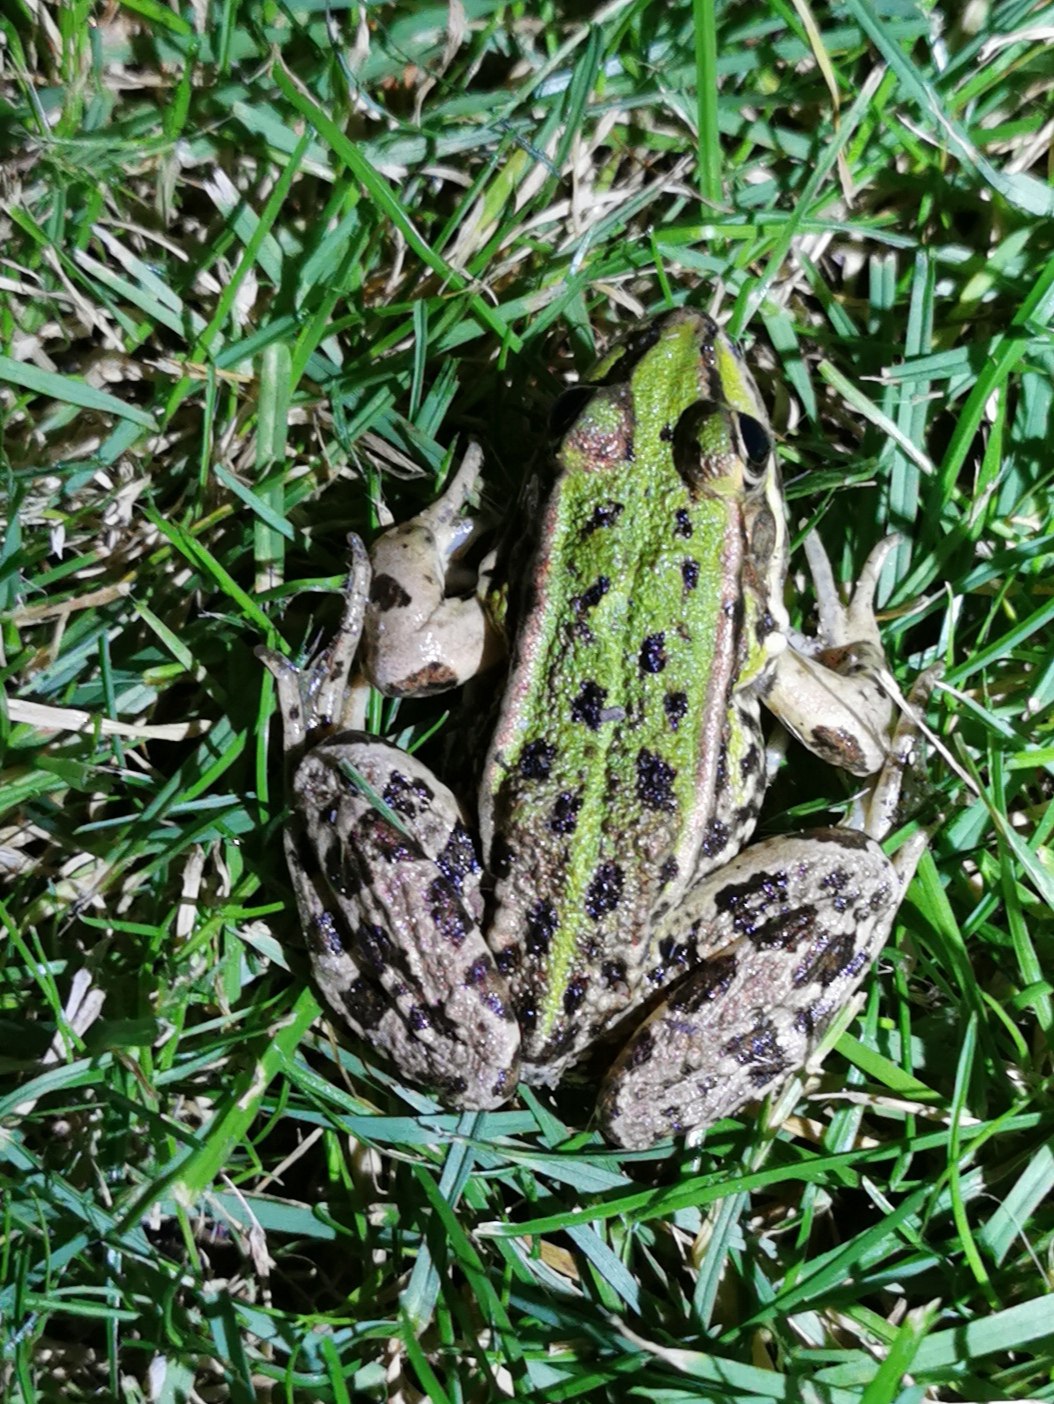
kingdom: Animalia
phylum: Chordata
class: Amphibia
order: Anura
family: Ranidae
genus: Pelophylax
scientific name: Pelophylax lessonae
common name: Grøn frø
